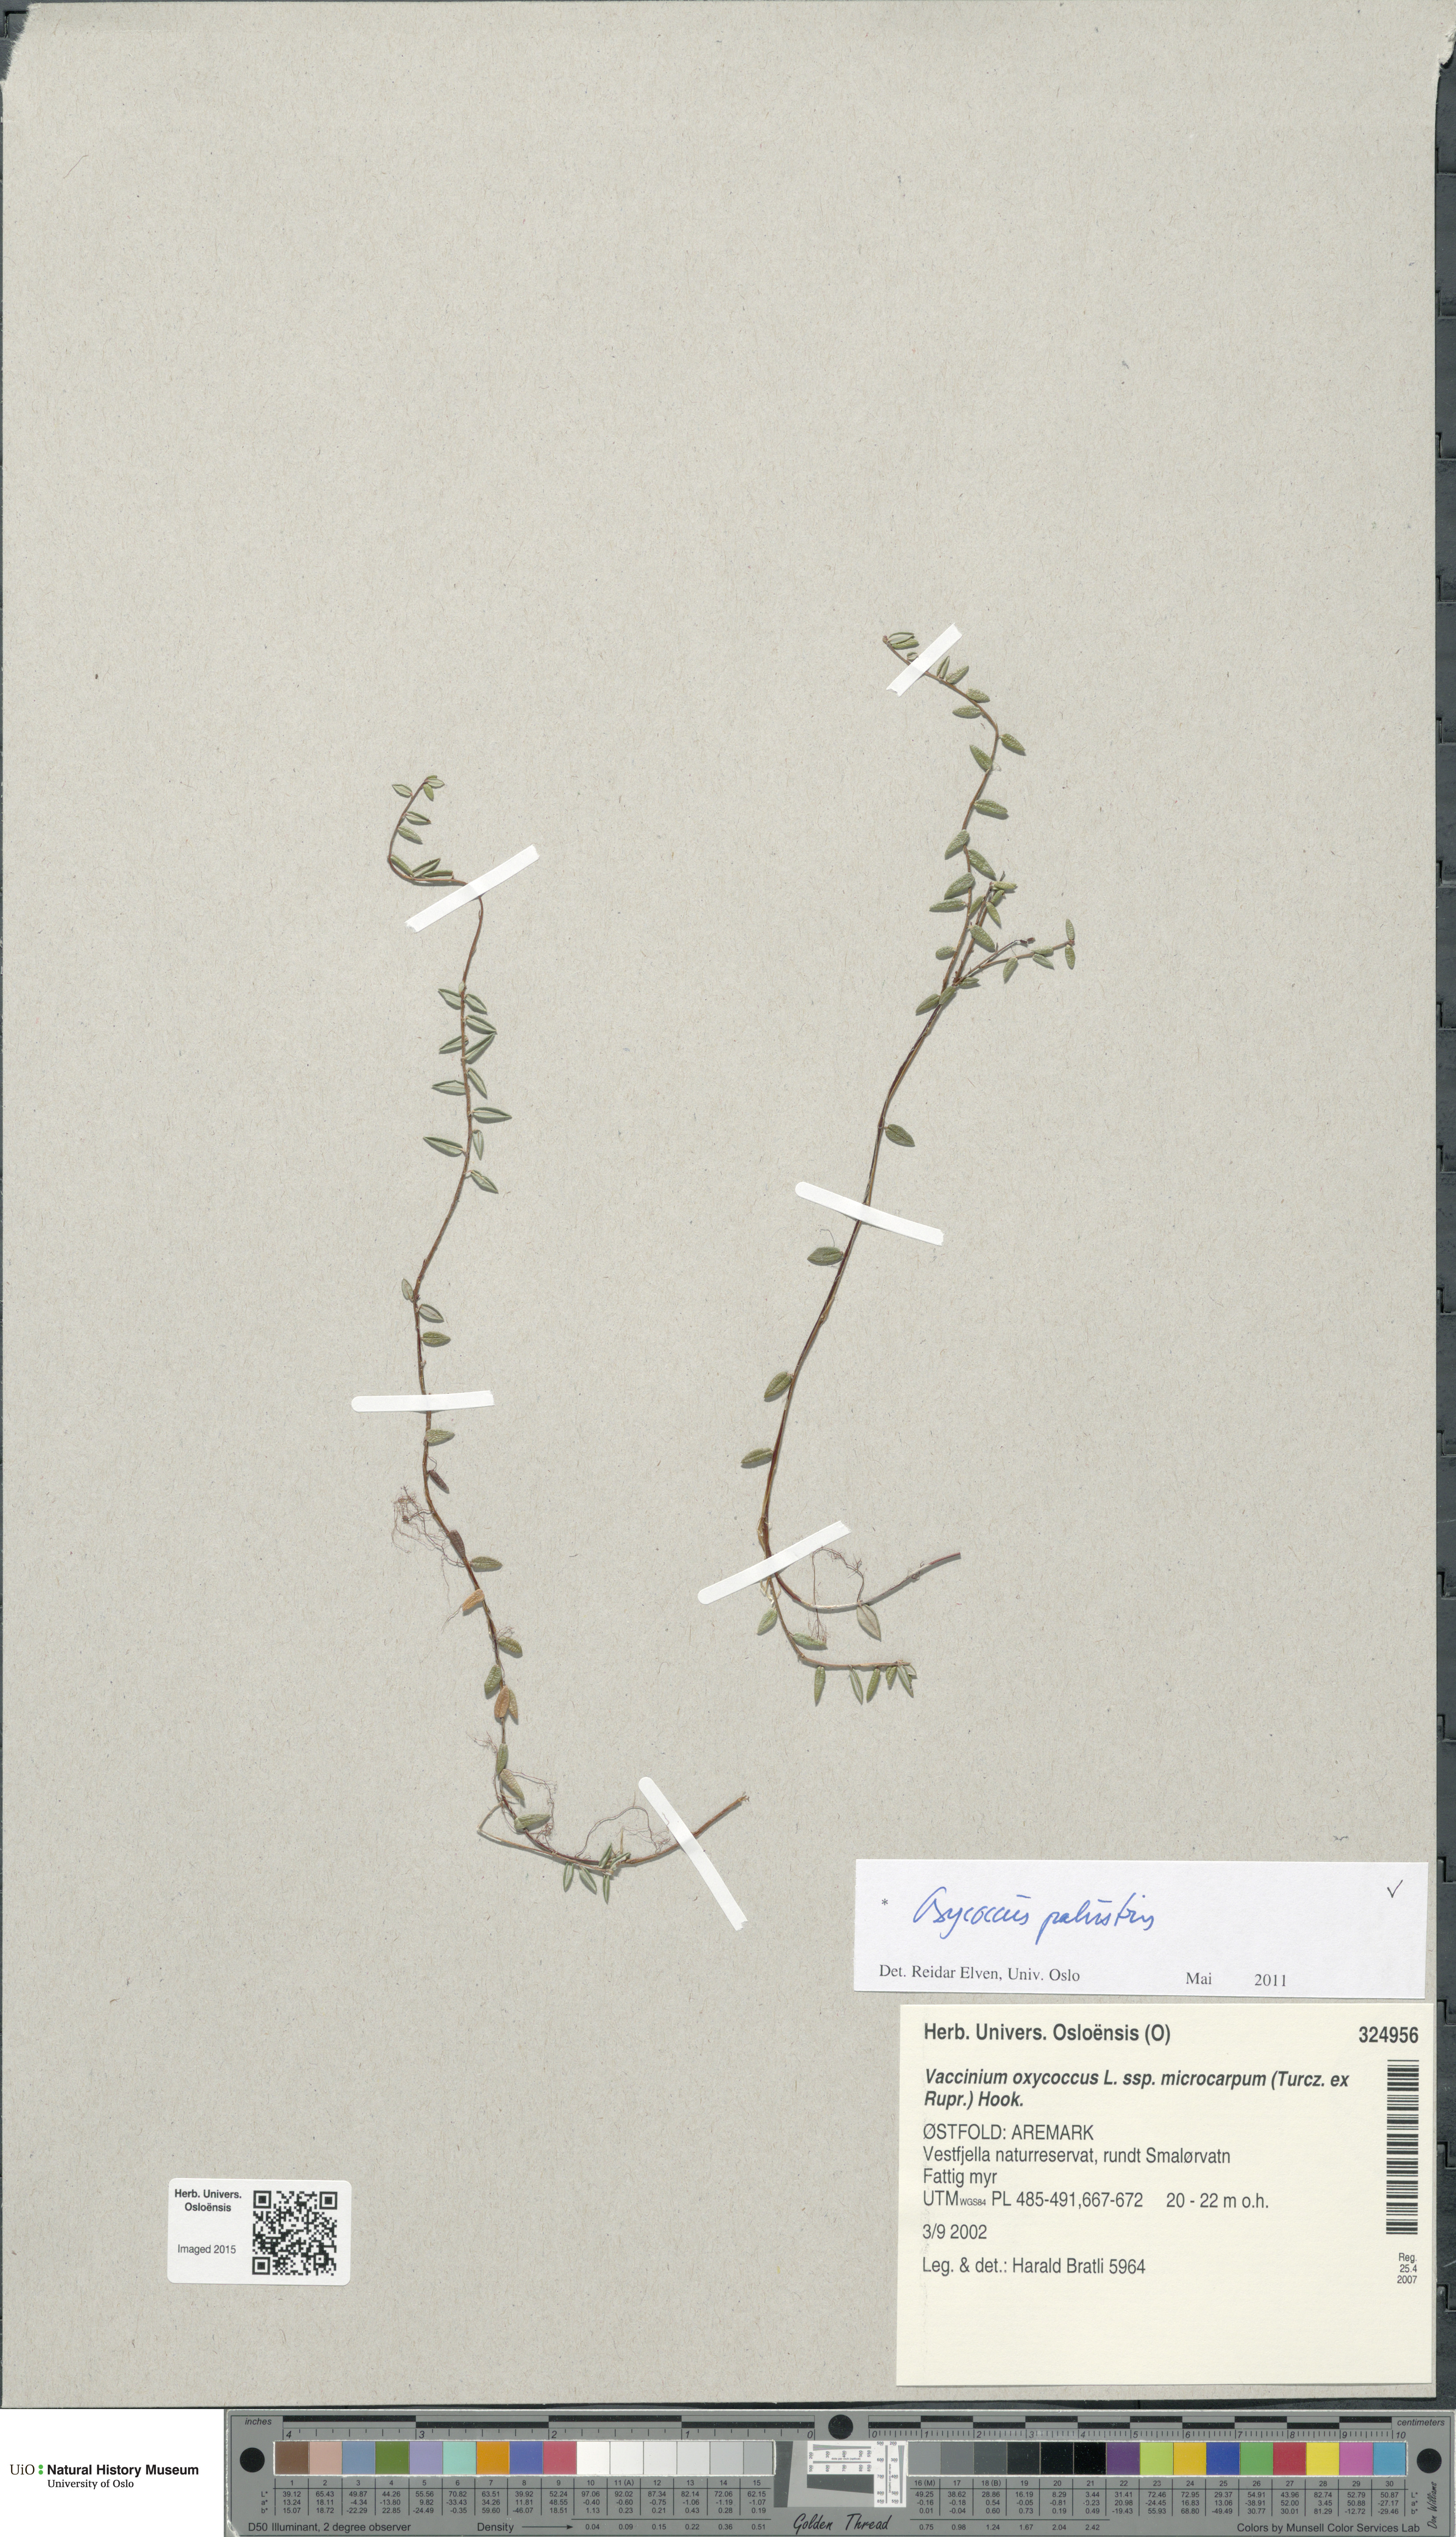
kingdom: Plantae
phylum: Tracheophyta
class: Magnoliopsida
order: Ericales
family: Ericaceae
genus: Vaccinium
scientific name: Vaccinium oxycoccos
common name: Cranberry
